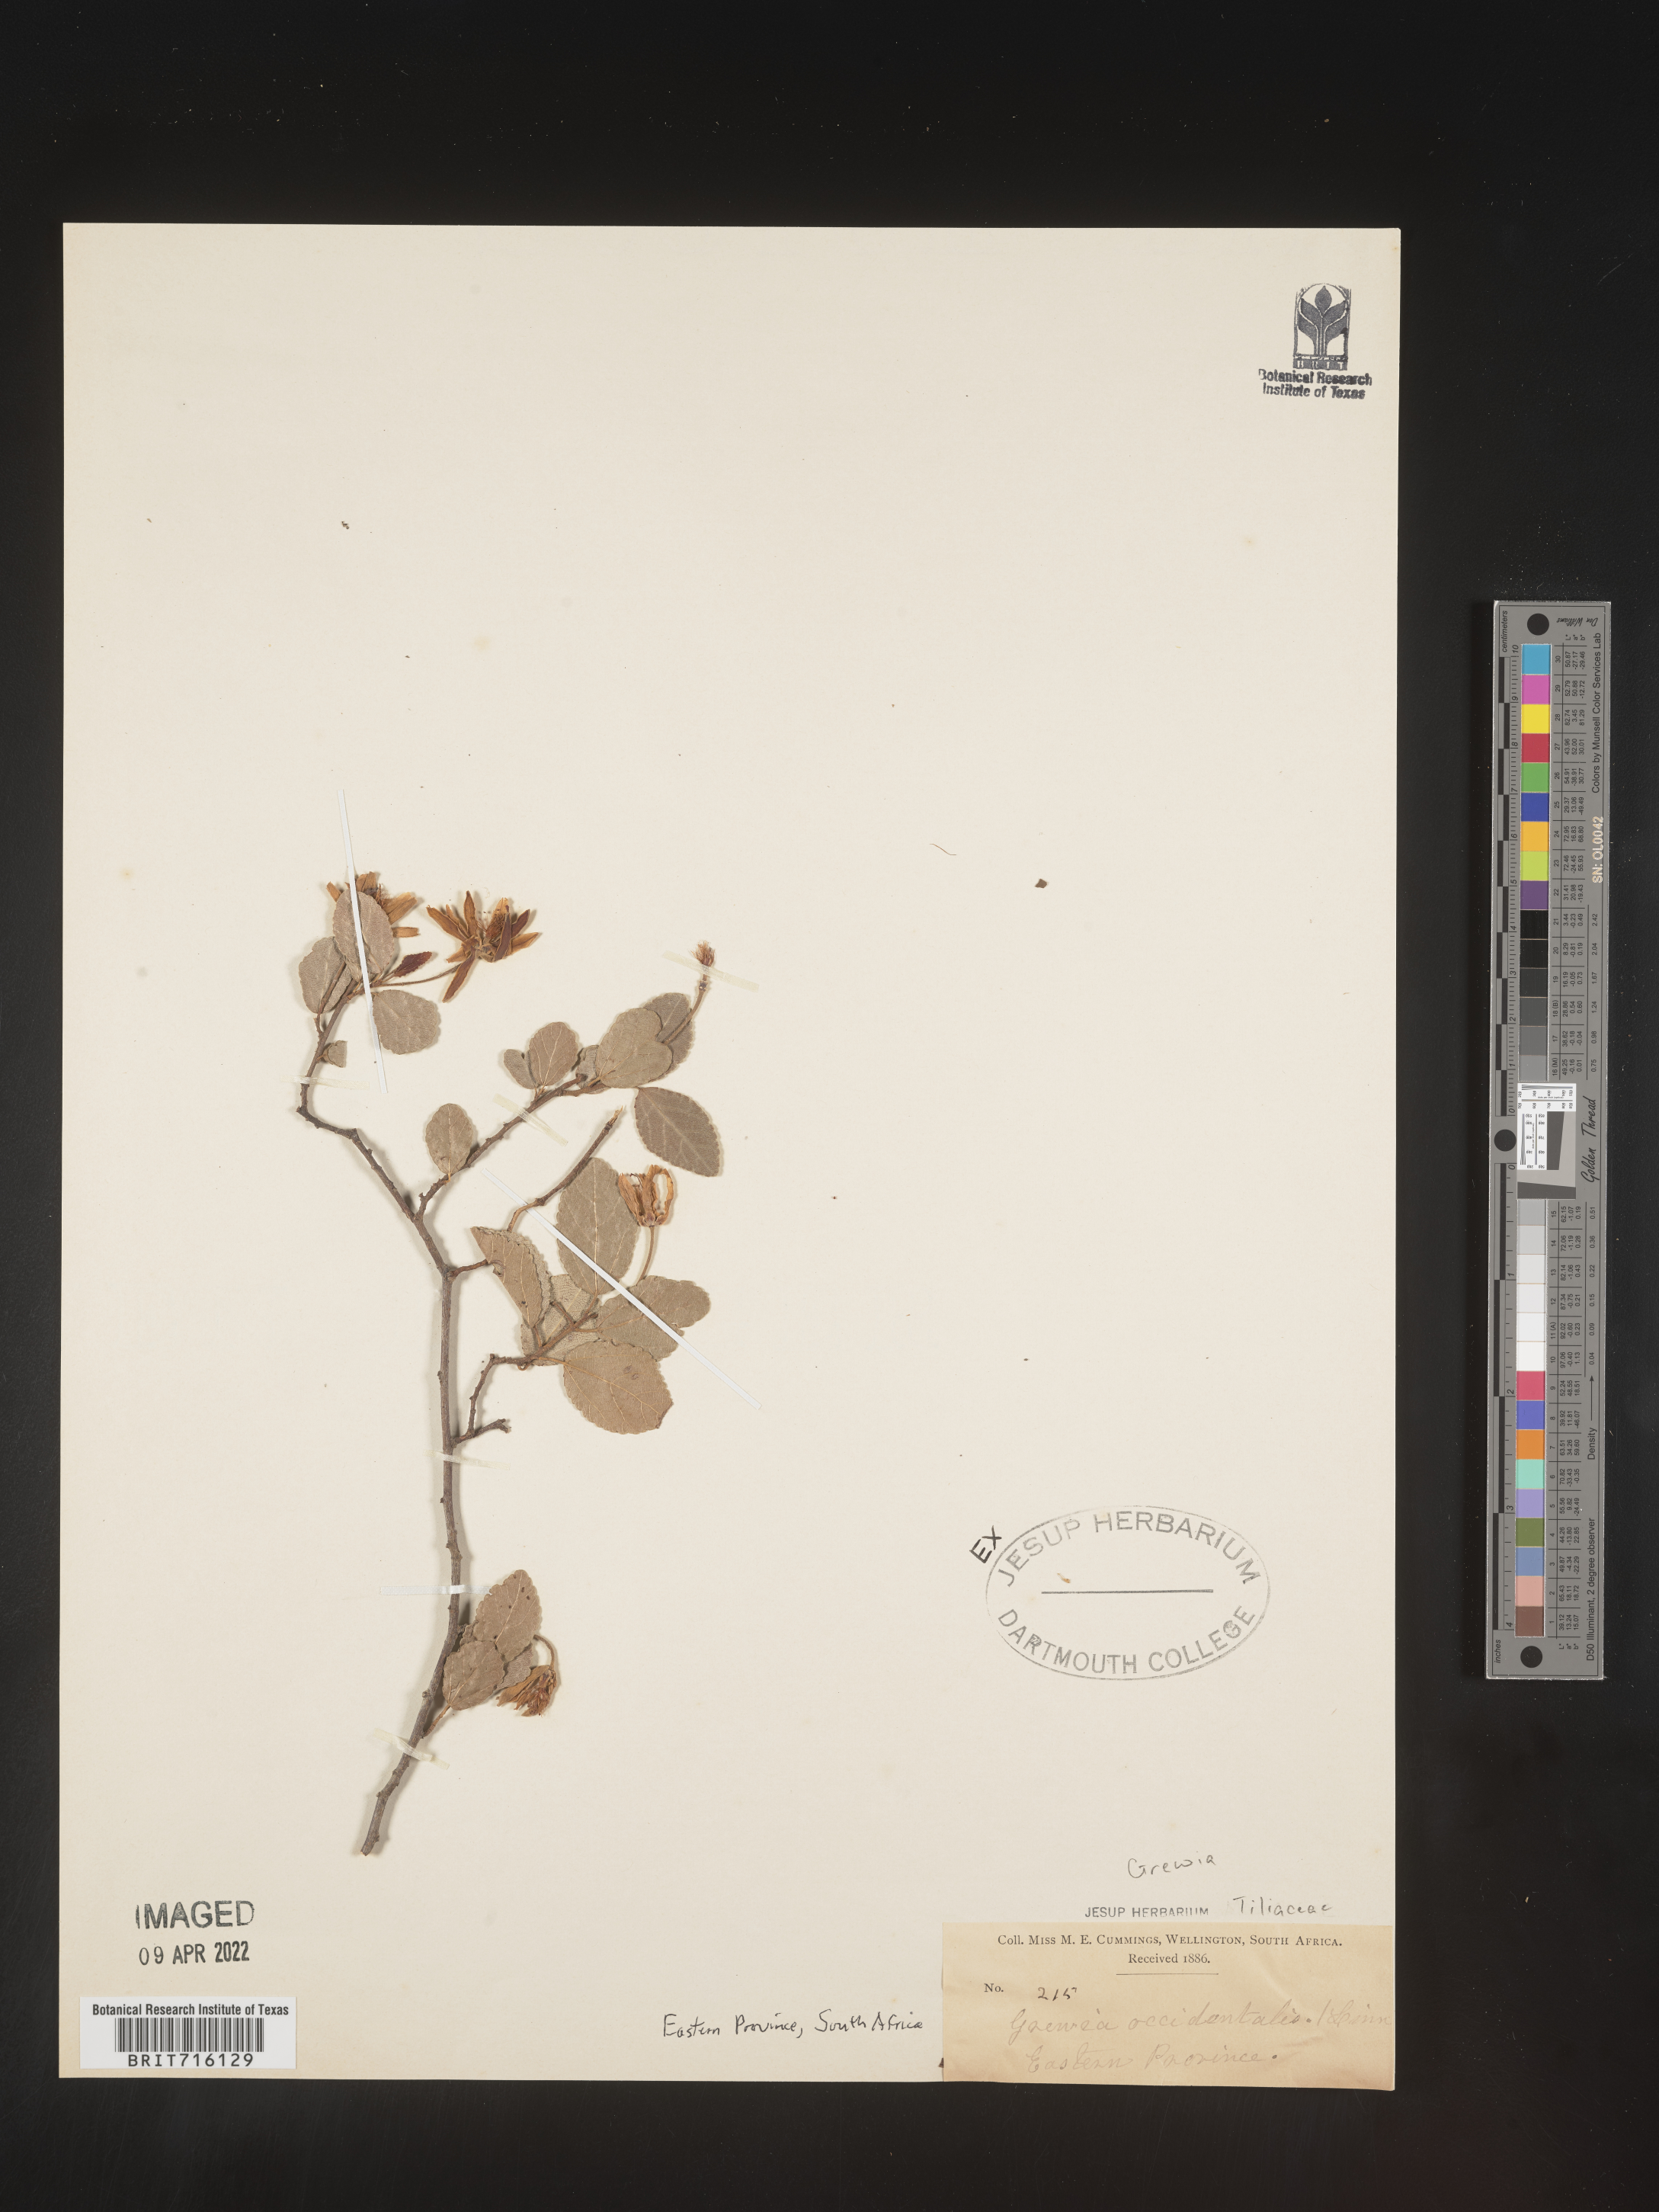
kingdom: Plantae
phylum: Tracheophyta
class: Magnoliopsida
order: Malvales
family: Malvaceae
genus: Grewia
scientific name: Grewia
